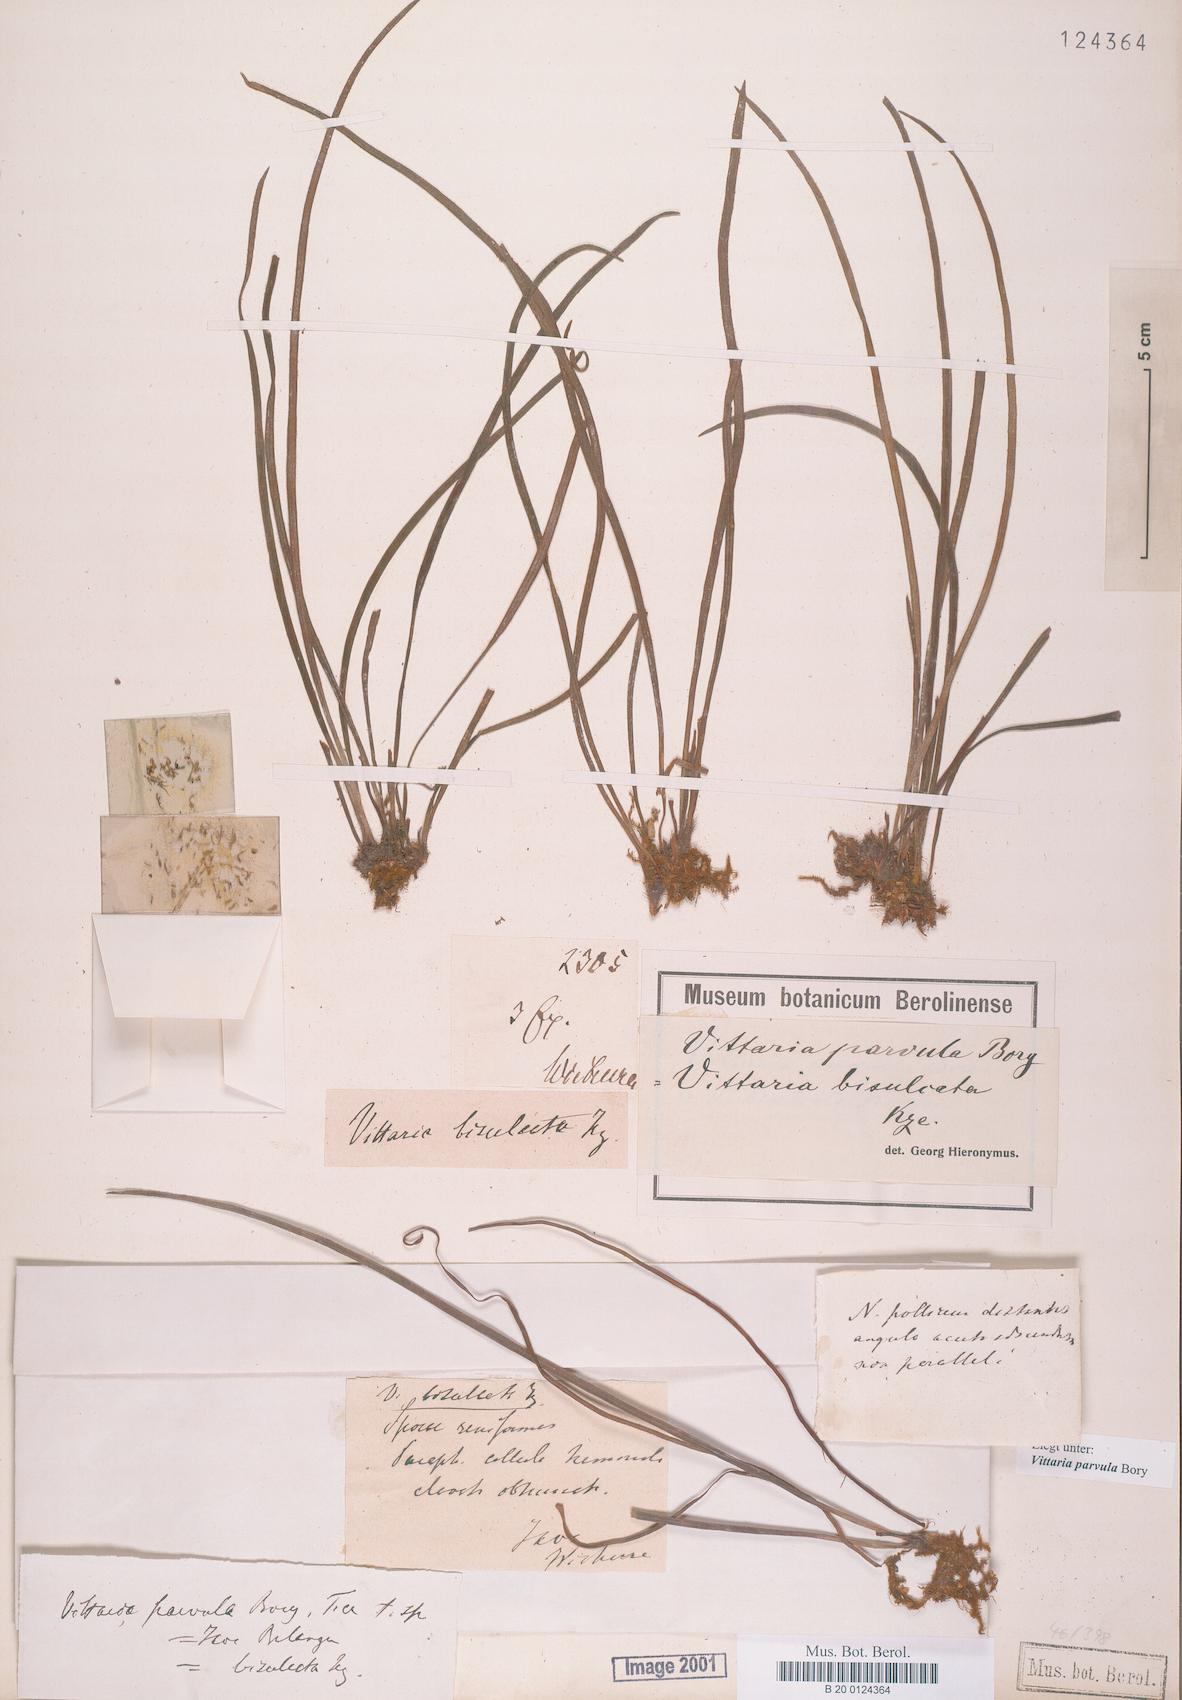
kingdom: Plantae
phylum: Tracheophyta
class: Polypodiopsida
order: Polypodiales
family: Pteridaceae
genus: Haplopteris
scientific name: Haplopteris elongata
